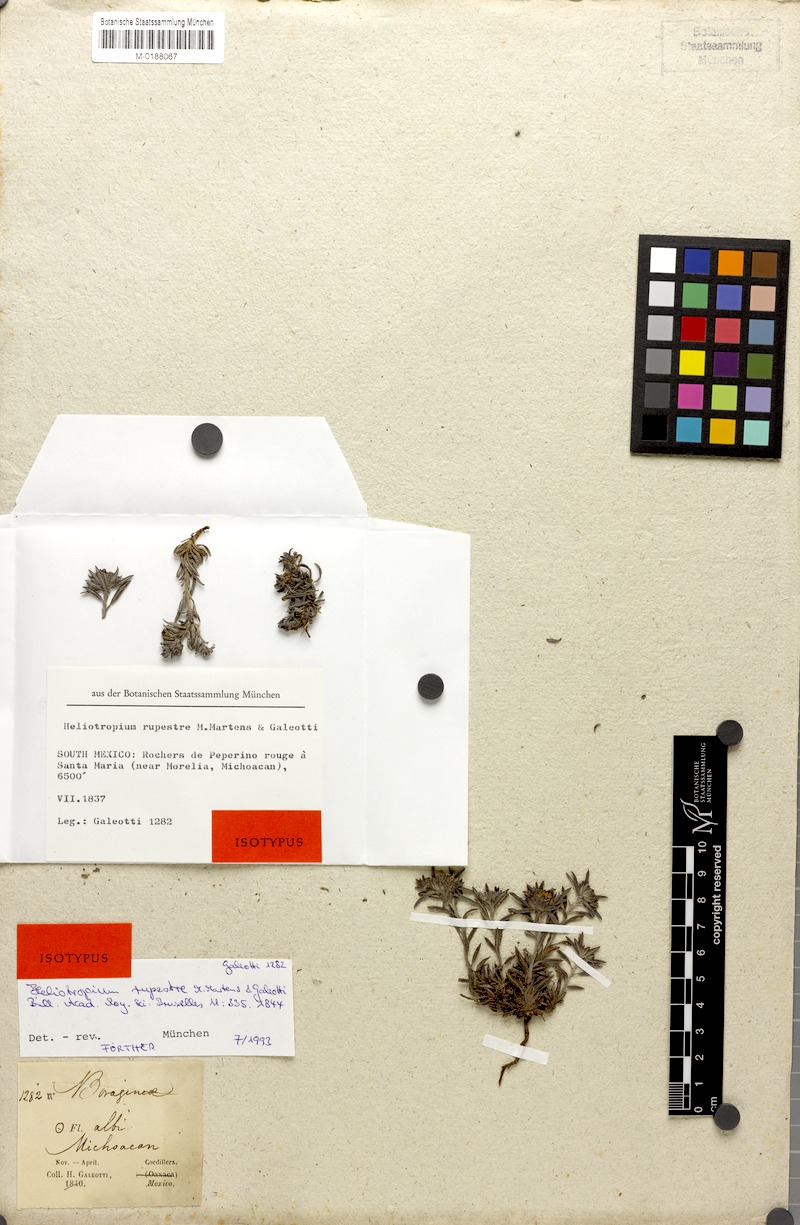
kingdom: Plantae
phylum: Tracheophyta
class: Magnoliopsida
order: Boraginales
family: Heliotropiaceae
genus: Euploca
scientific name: Euploca limbata
